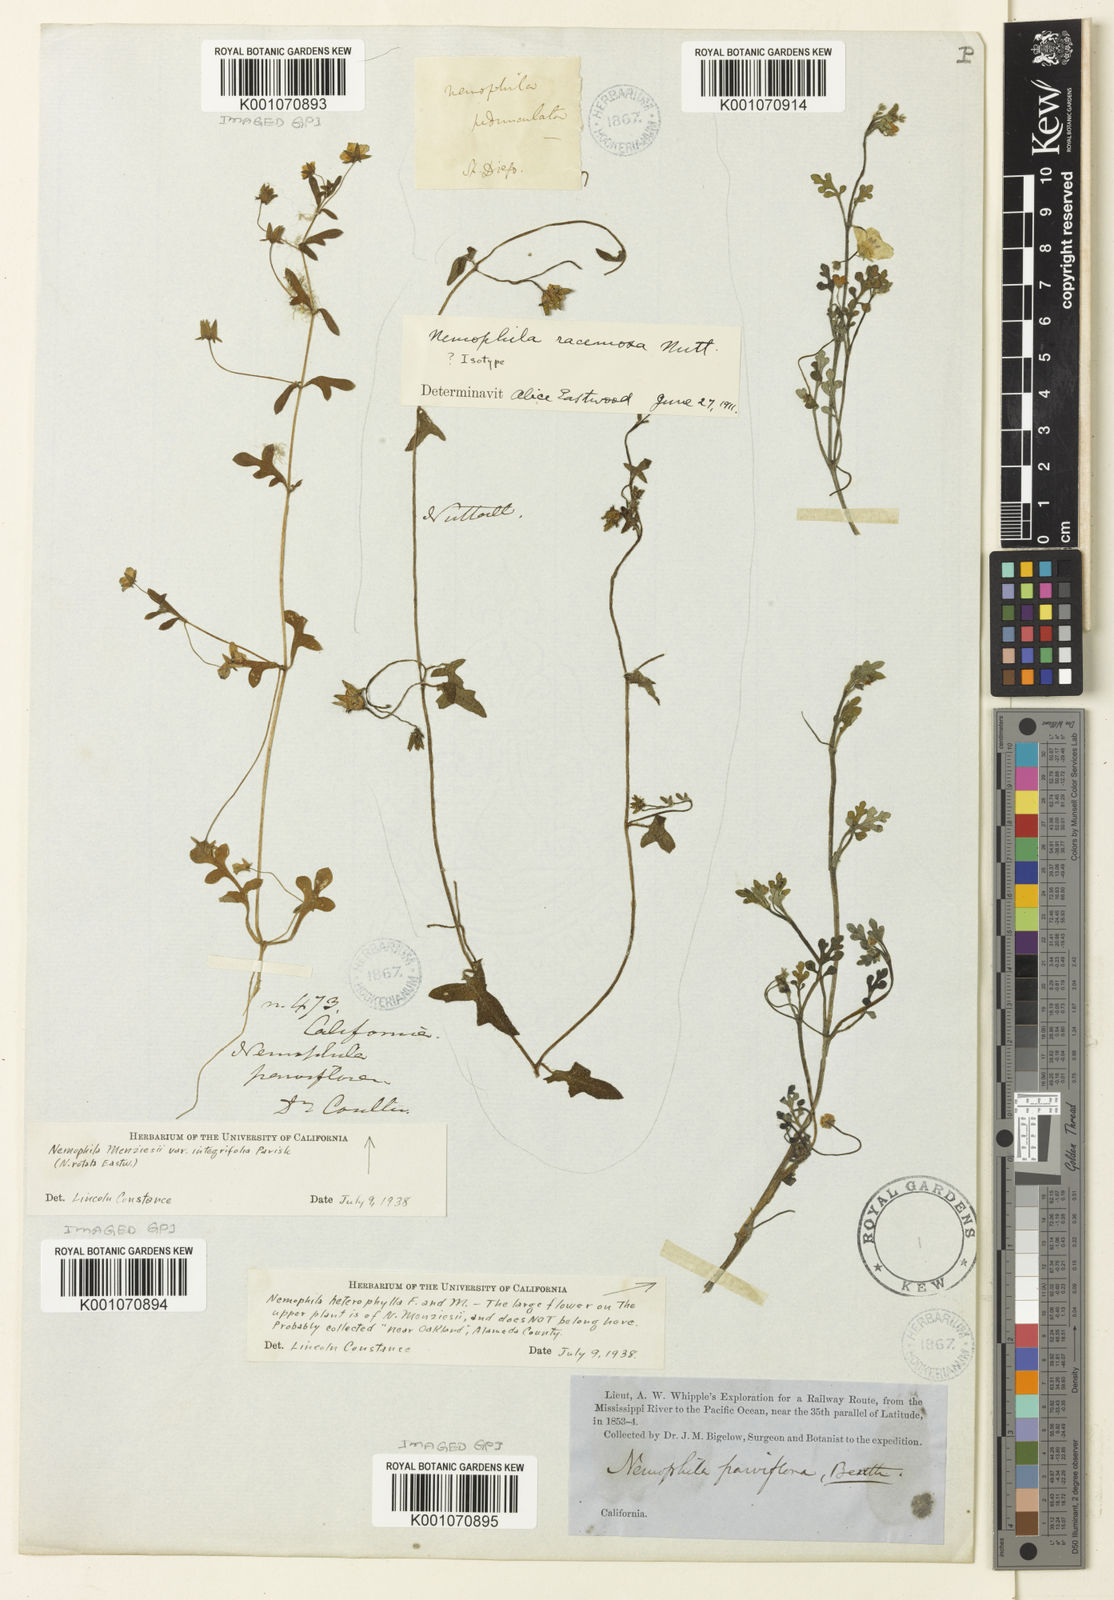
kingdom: Plantae
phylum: Tracheophyta
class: Magnoliopsida
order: Boraginales
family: Hydrophyllaceae
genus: Pholistoma
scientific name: Pholistoma racemosum
